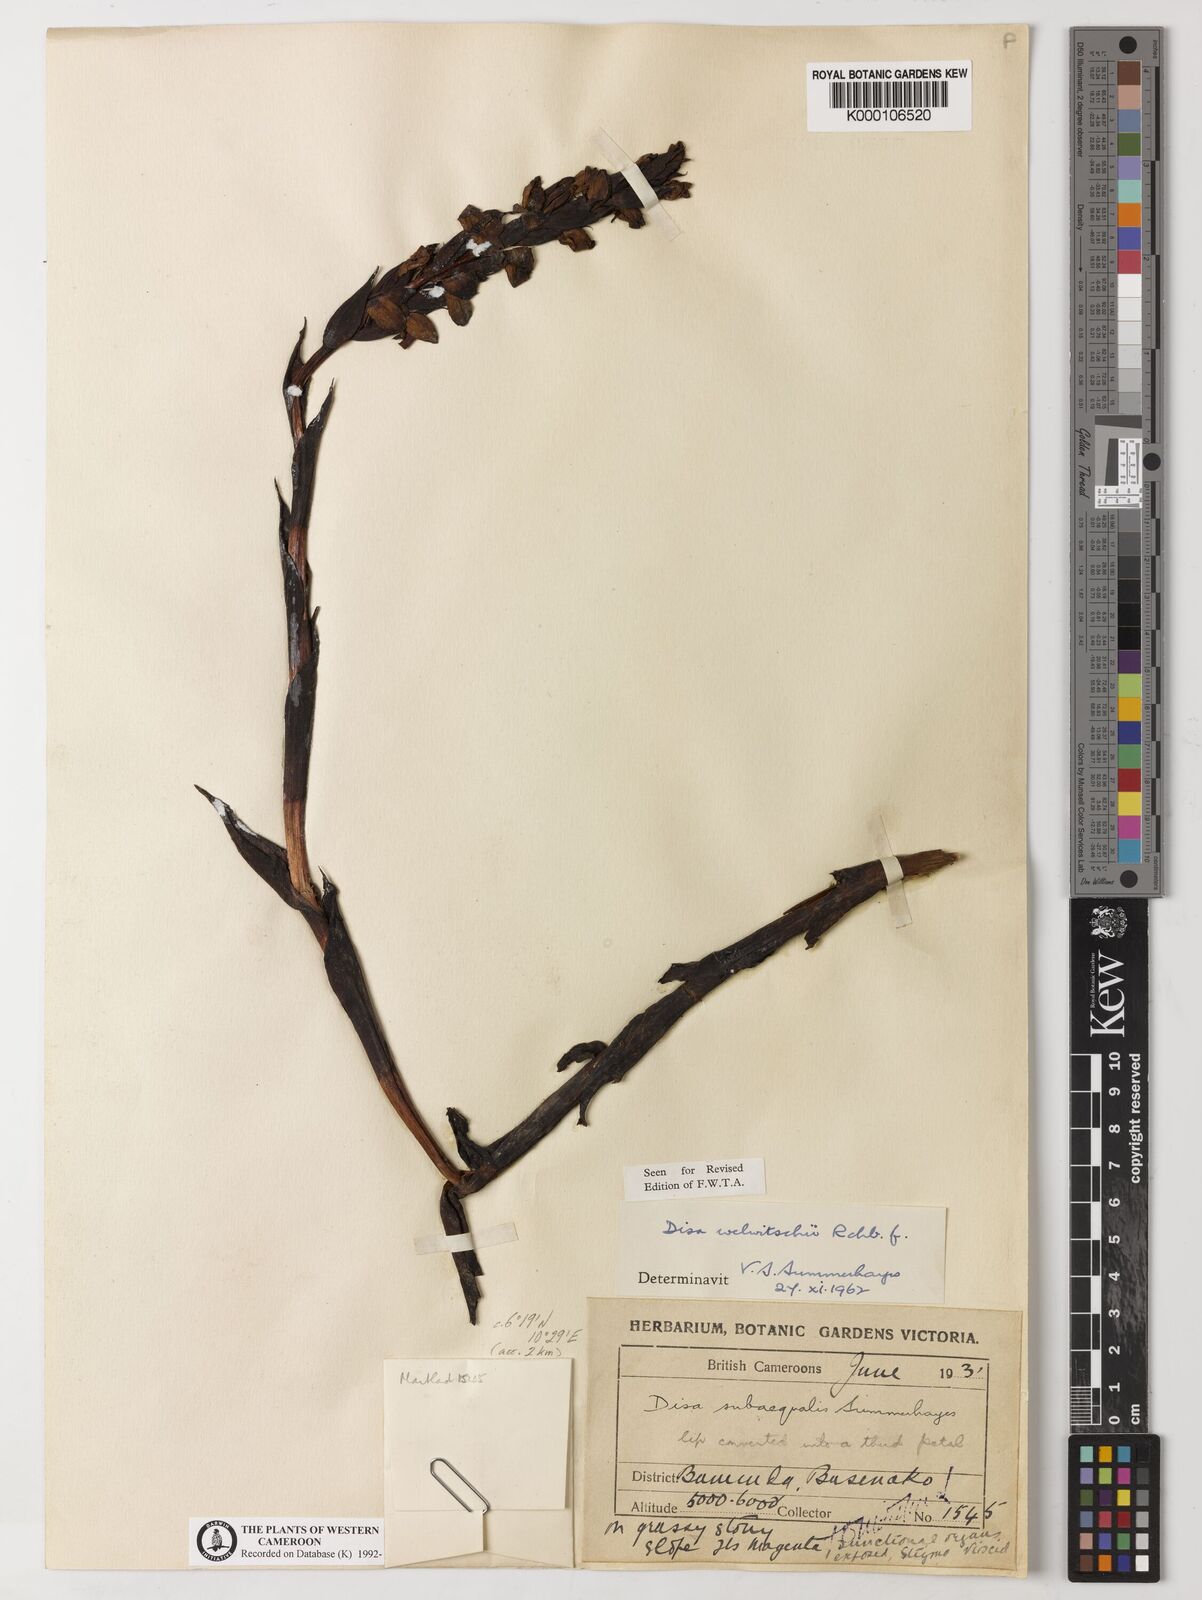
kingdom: Plantae
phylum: Tracheophyta
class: Liliopsida
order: Asparagales
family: Orchidaceae
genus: Disa
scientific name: Disa welwitschii
